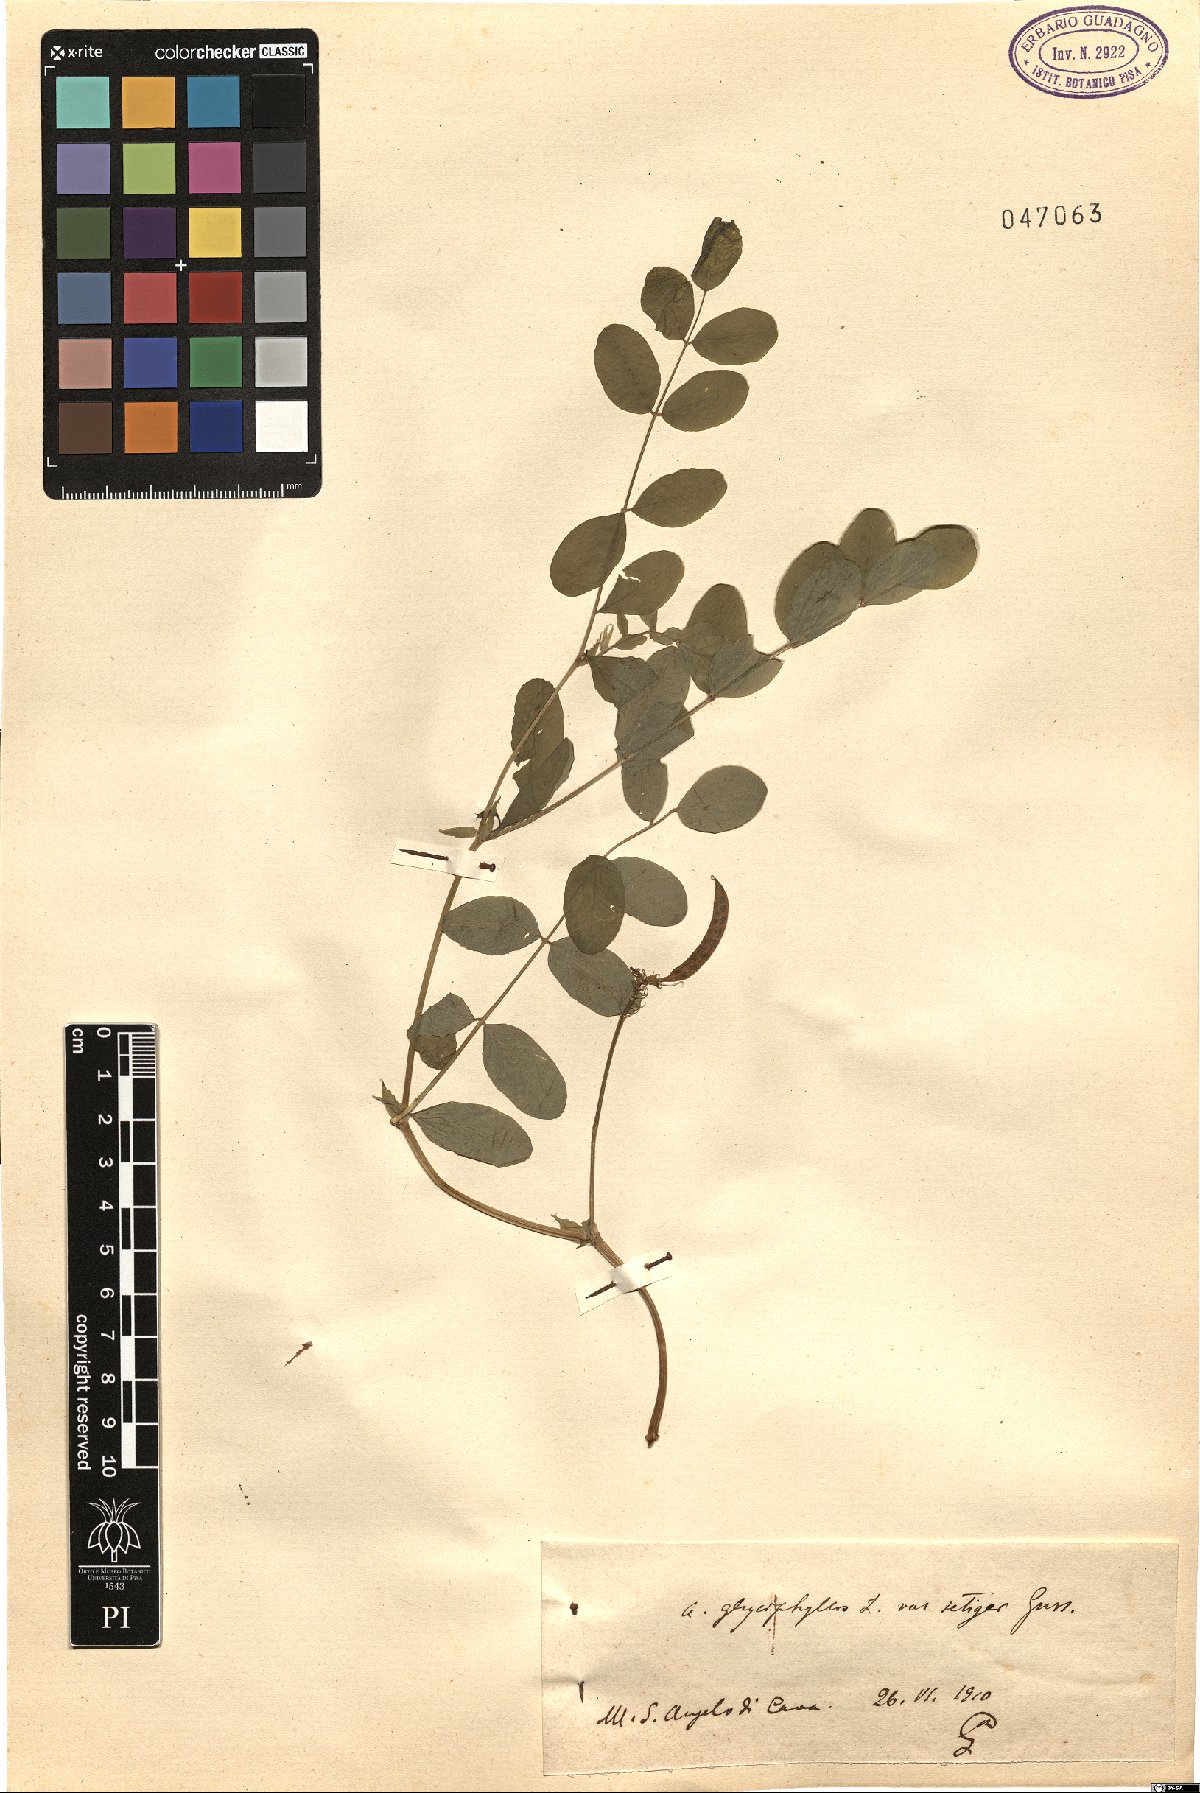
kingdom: Plantae
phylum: Tracheophyta
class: Magnoliopsida
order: Fabales
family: Fabaceae
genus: Astragalus
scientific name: Astragalus glycyphyllos
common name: Wild liquorice
